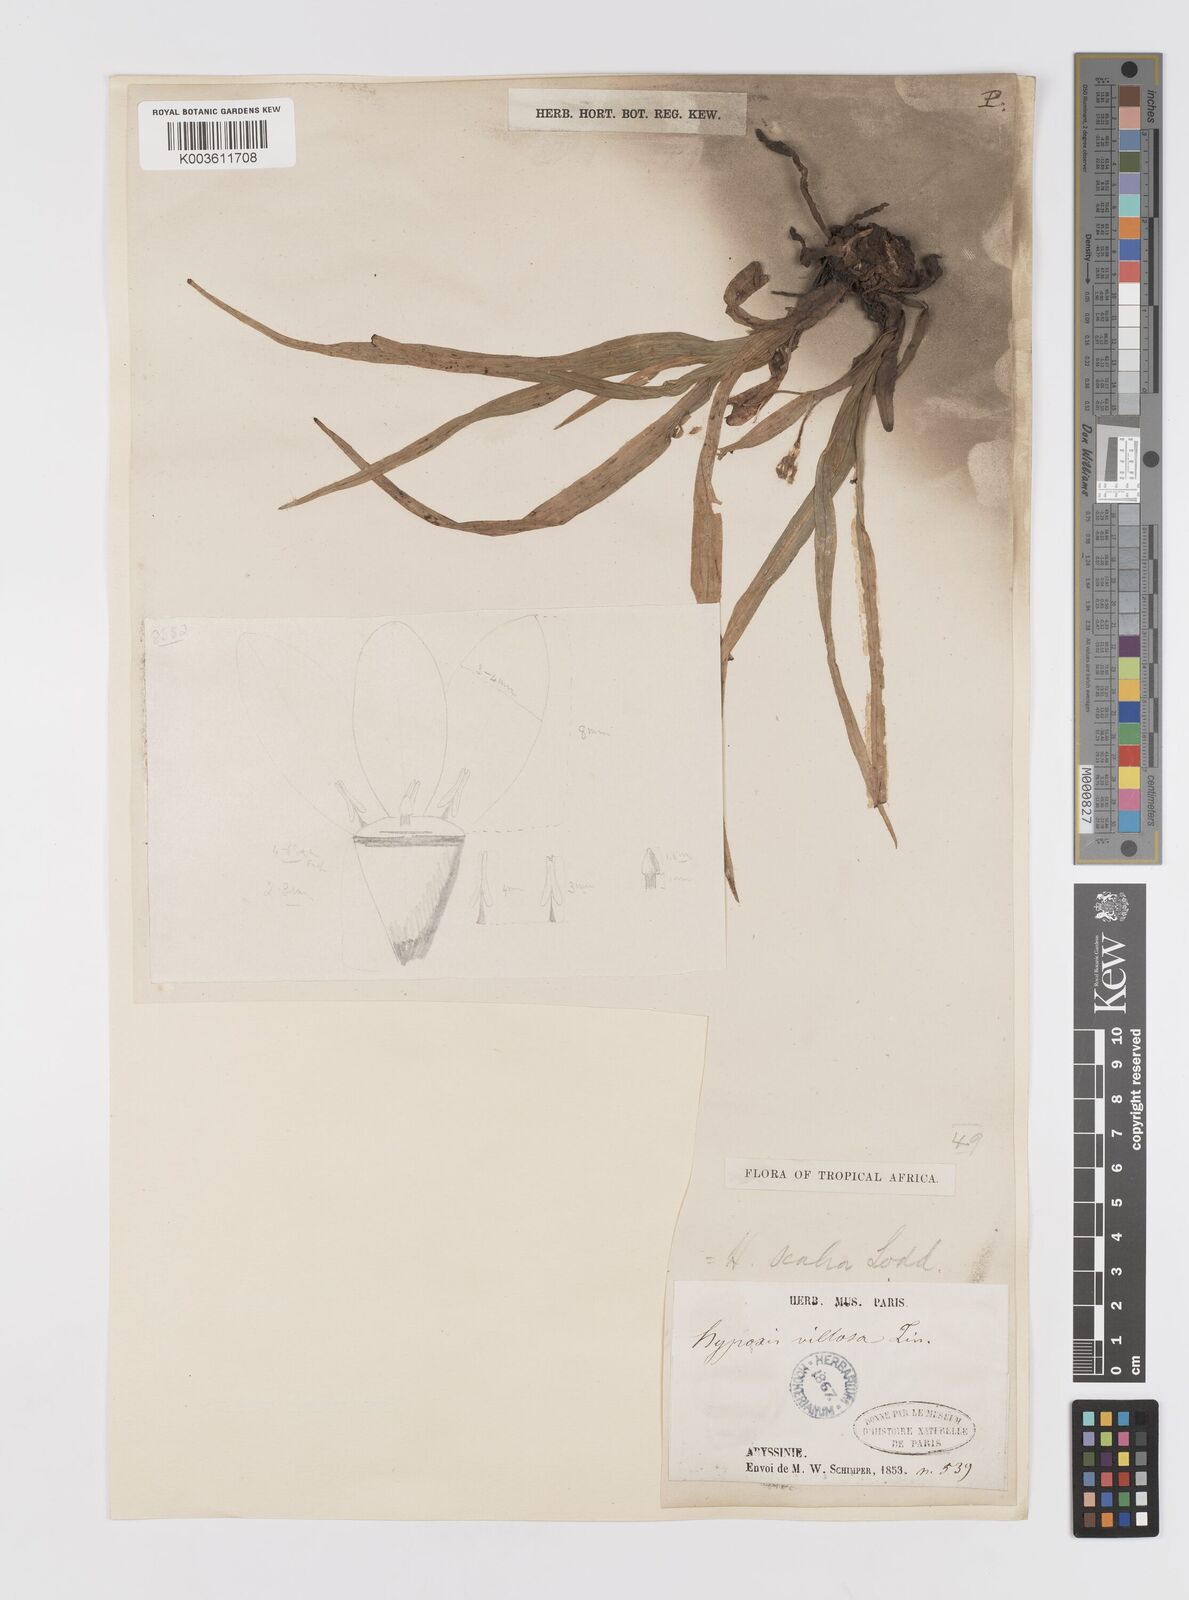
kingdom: Plantae
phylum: Tracheophyta
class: Liliopsida
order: Asparagales
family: Hypoxidaceae
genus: Hypoxis
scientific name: Hypoxis villosa
